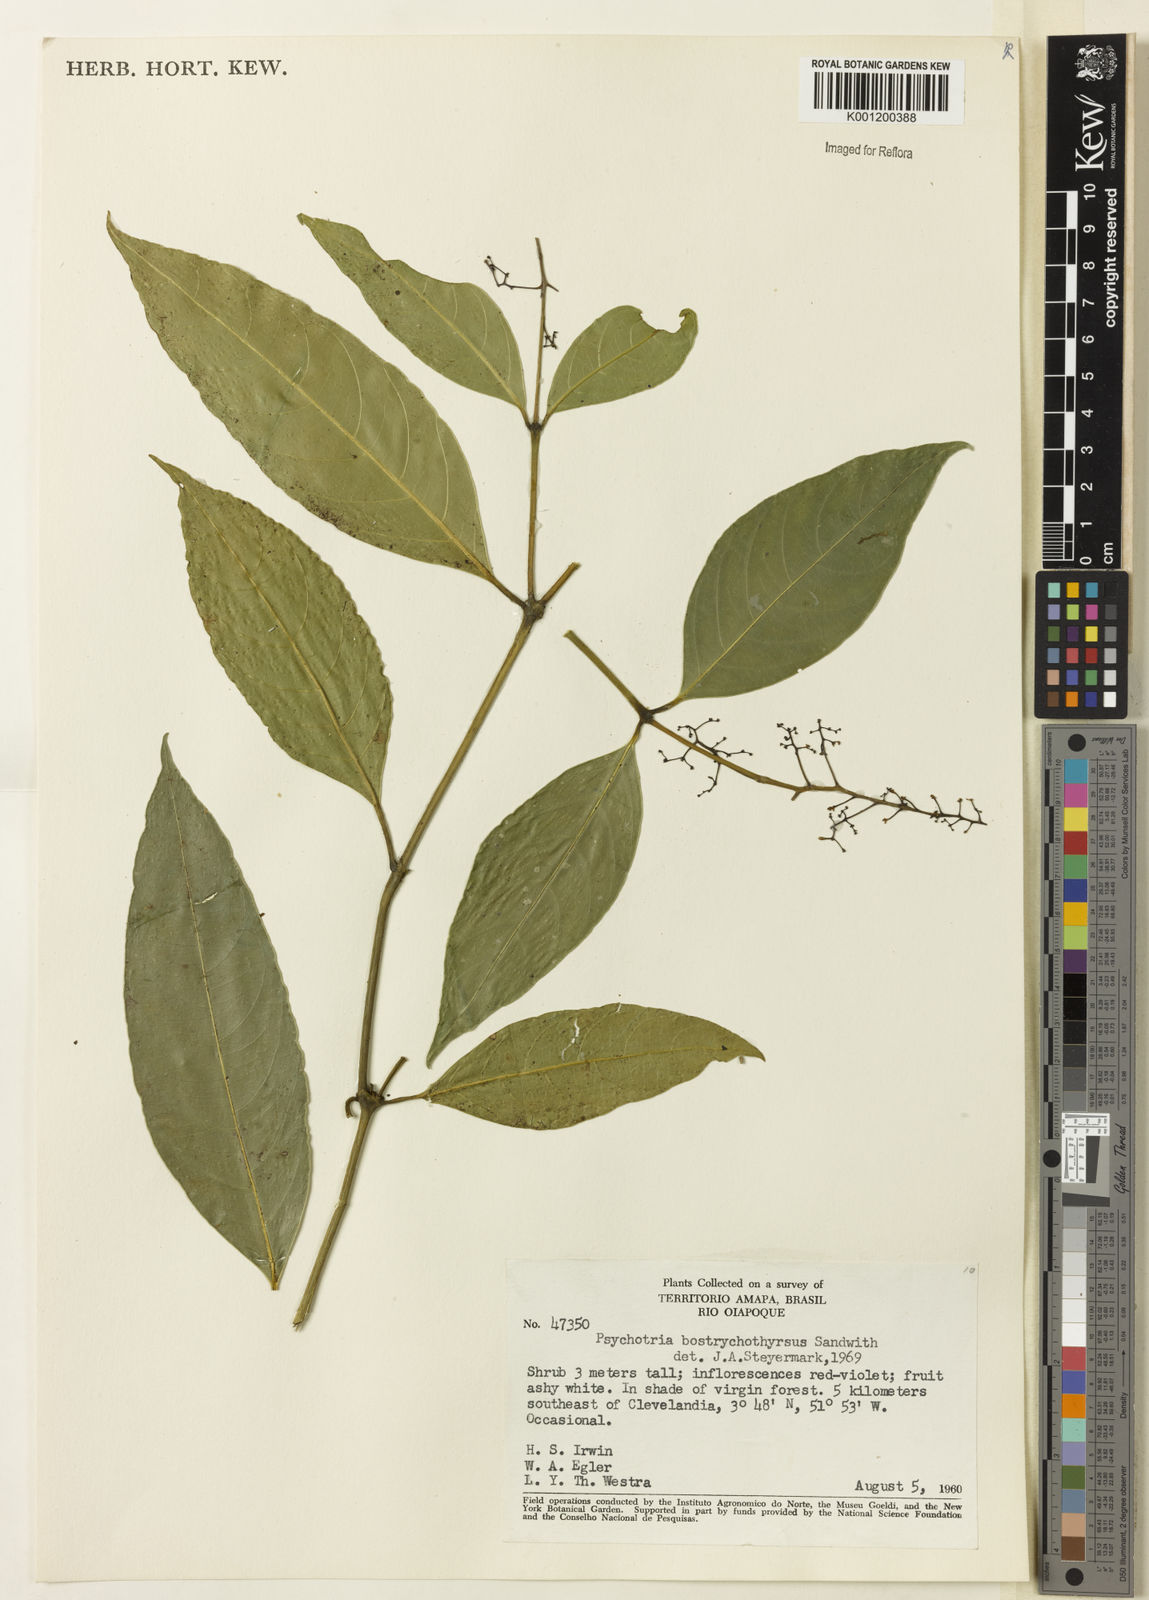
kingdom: Plantae
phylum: Tracheophyta
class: Magnoliopsida
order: Gentianales
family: Rubiaceae
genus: Palicourea
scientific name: Palicourea bostrychothyrsus
